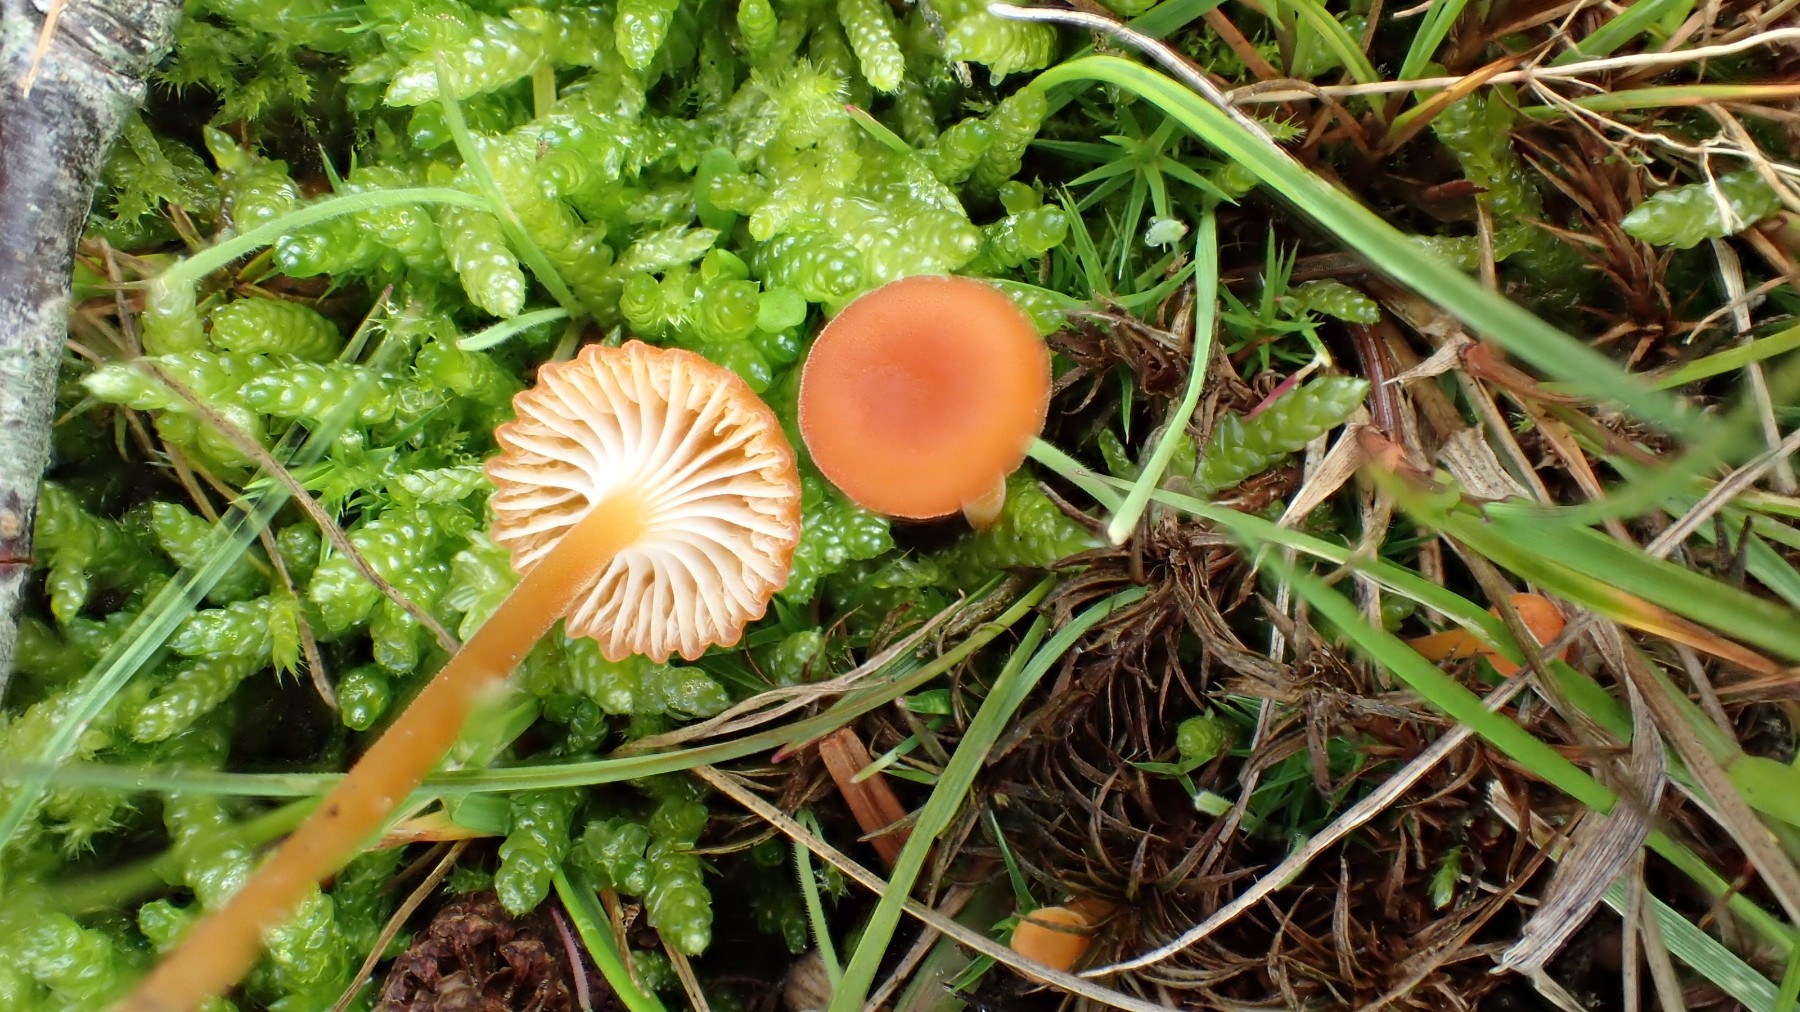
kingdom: Fungi
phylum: Basidiomycota
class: Agaricomycetes
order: Hymenochaetales
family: Rickenellaceae
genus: Rickenella
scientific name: Rickenella fibula
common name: orange mosnavlehat
